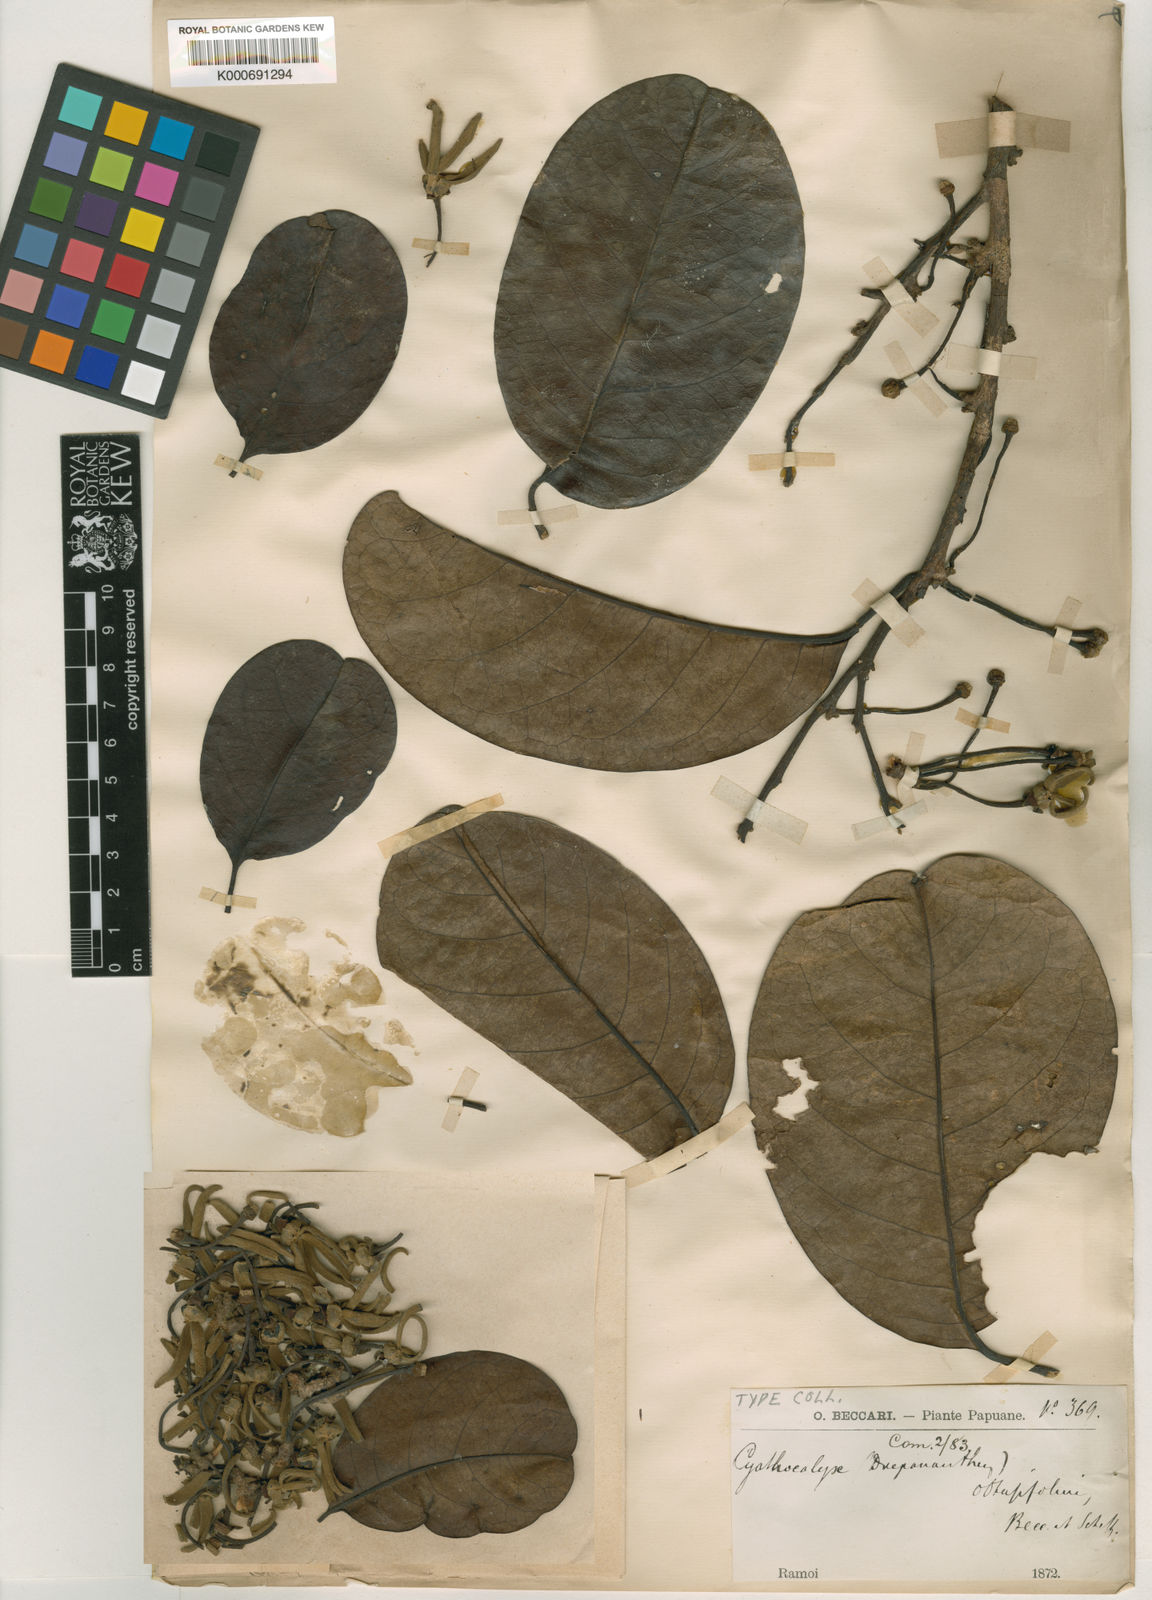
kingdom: Plantae
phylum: Tracheophyta
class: Magnoliopsida
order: Magnoliales
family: Annonaceae
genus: Drepananthus
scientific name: Drepananthus obtusifolius
